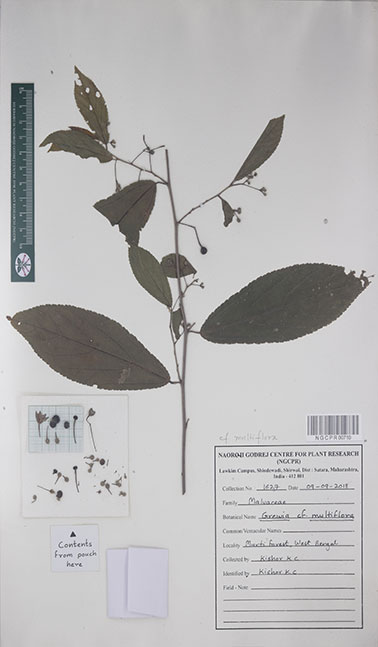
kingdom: Plantae
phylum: Tracheophyta
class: Magnoliopsida
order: Malvales
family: Malvaceae
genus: Grewia
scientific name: Grewia multiflora
